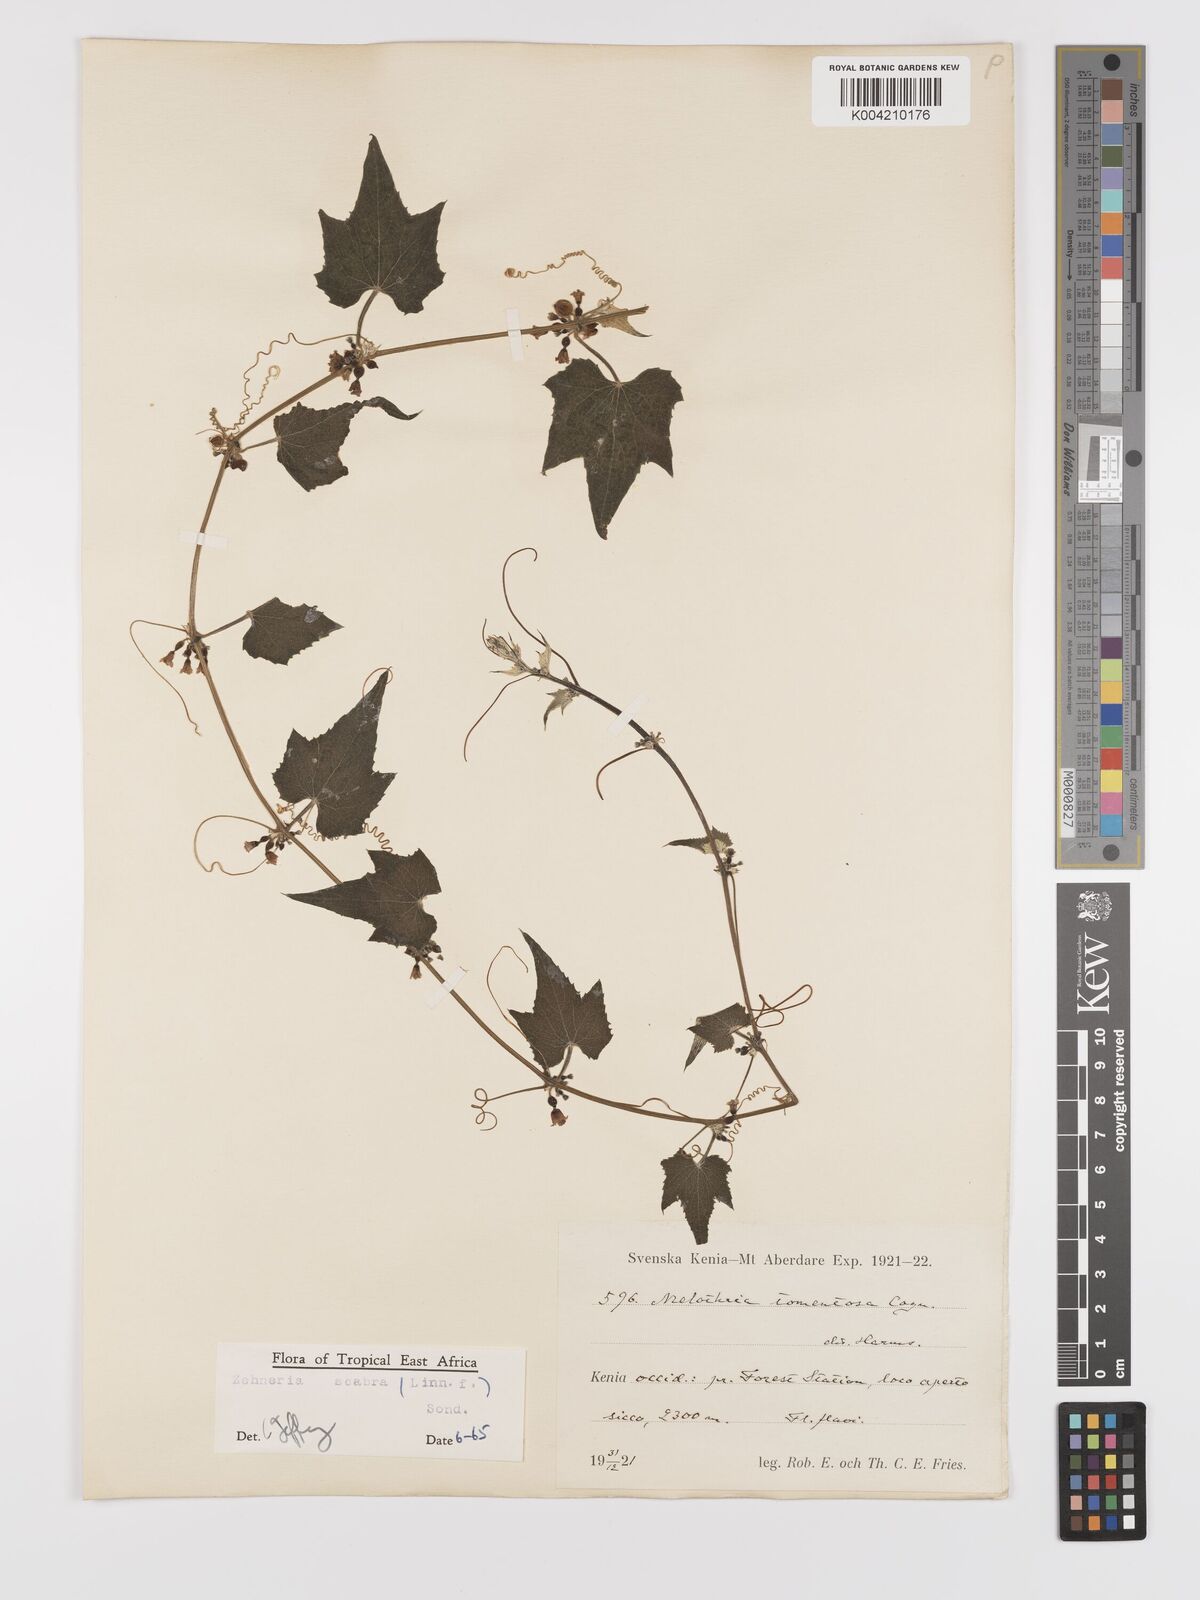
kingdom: Plantae
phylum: Tracheophyta
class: Magnoliopsida
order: Cucurbitales
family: Cucurbitaceae
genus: Zehneria
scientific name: Zehneria scabra
